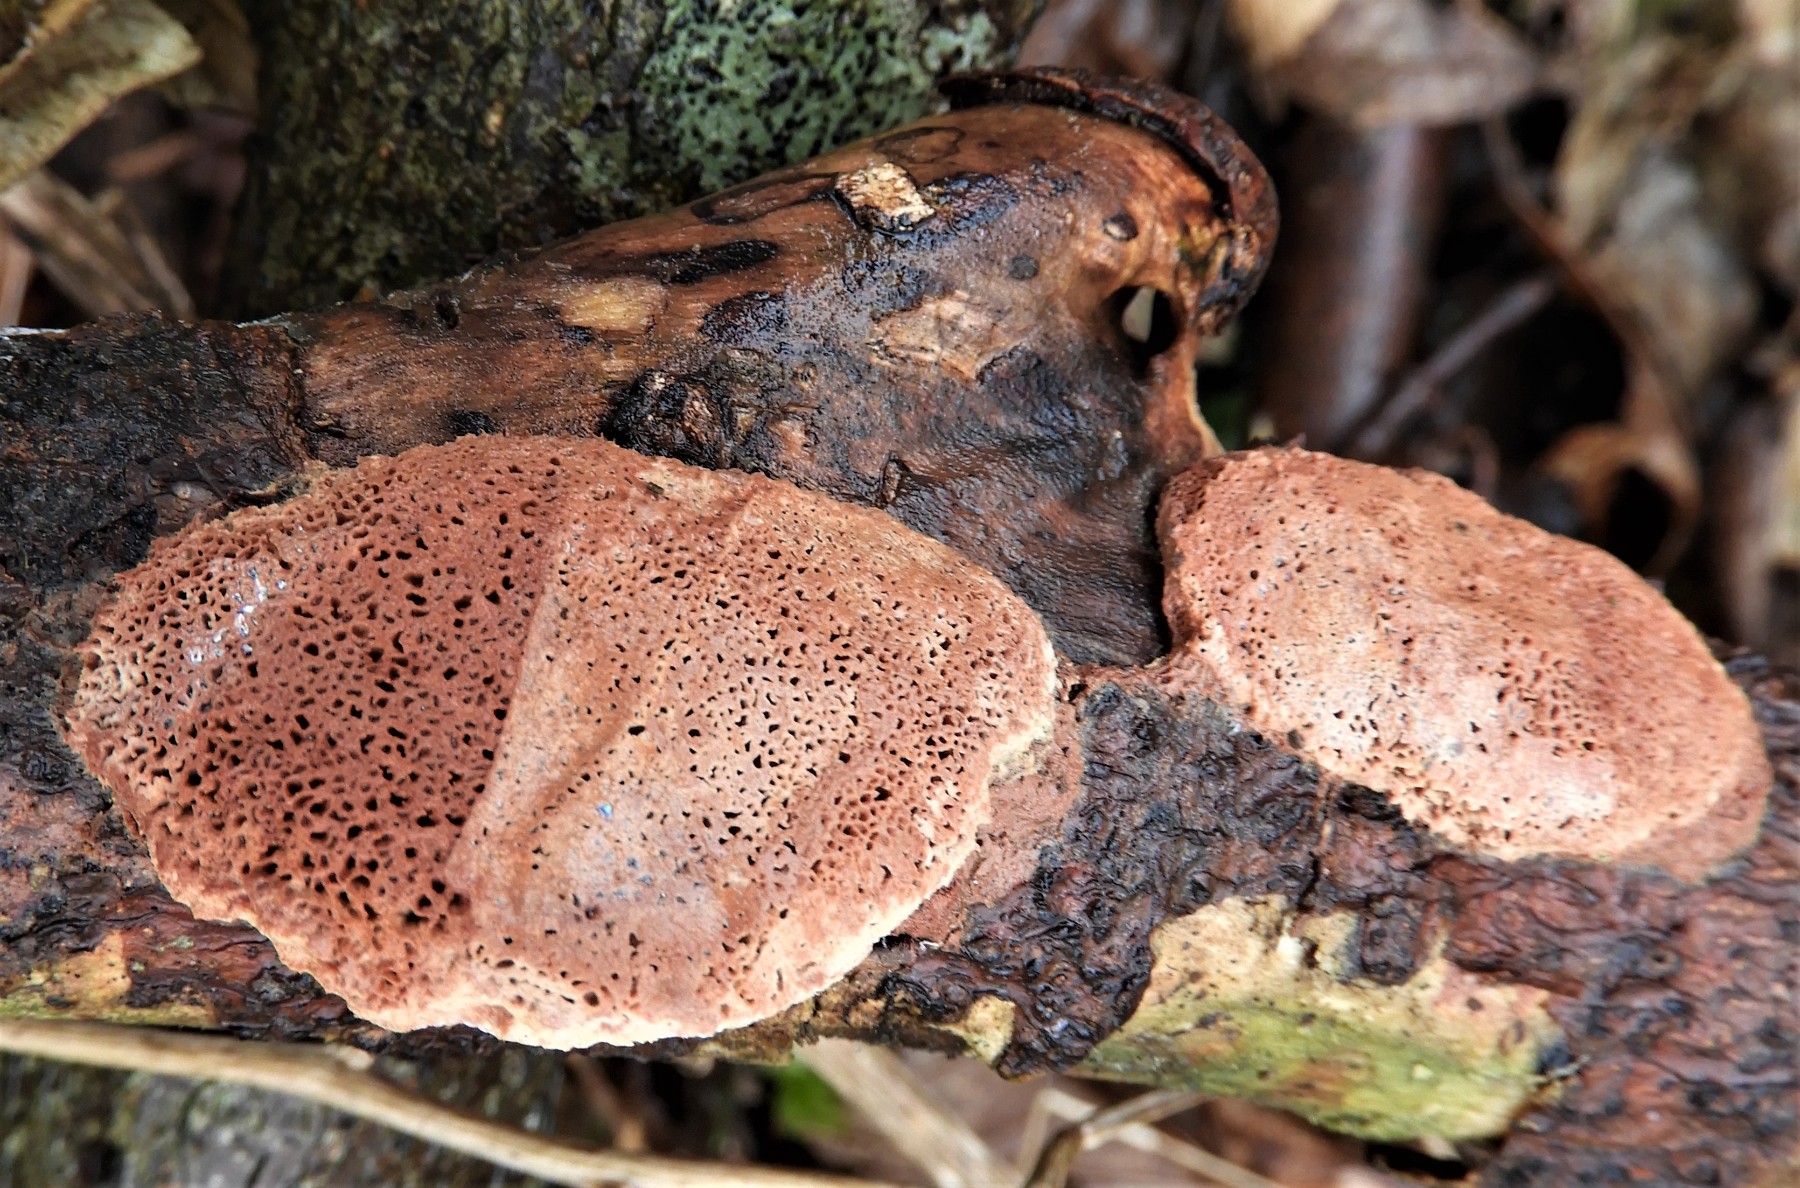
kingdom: Fungi
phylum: Basidiomycota
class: Agaricomycetes
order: Polyporales
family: Phanerochaetaceae
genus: Hapalopilus
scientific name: Hapalopilus rutilans
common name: rødlig okkerporesvamp
